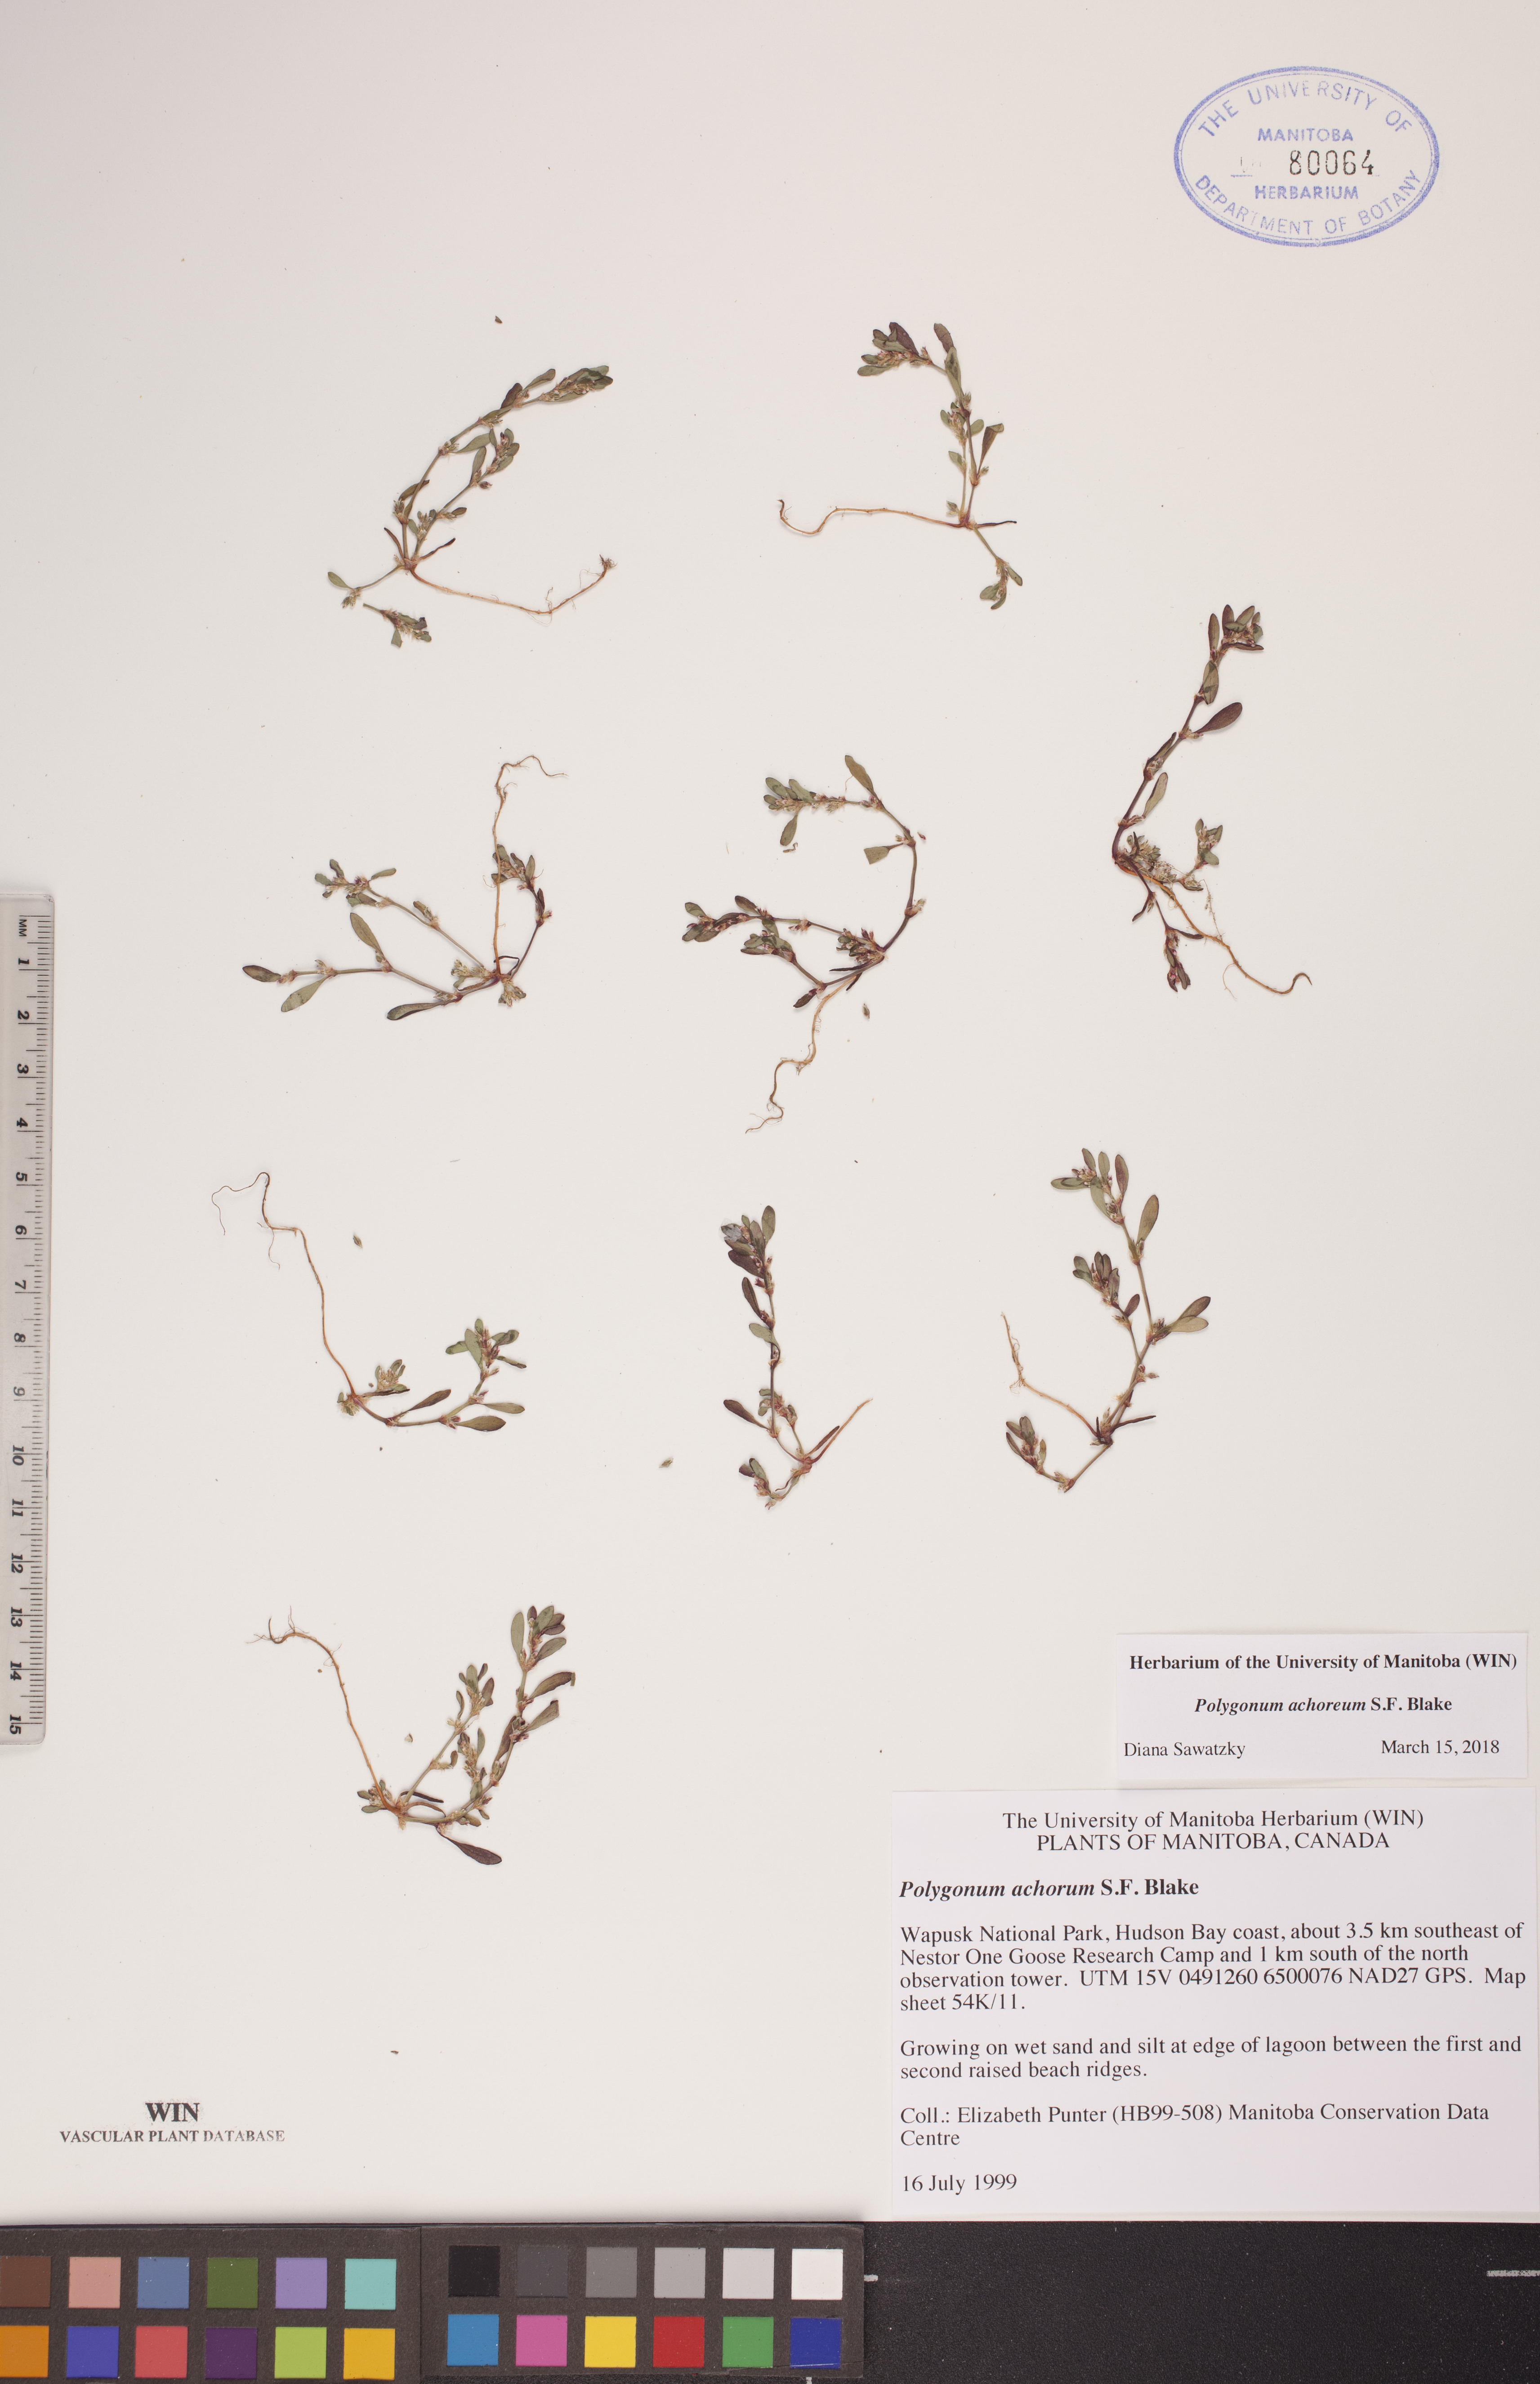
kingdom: Plantae
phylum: Tracheophyta
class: Magnoliopsida
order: Caryophyllales
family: Polygonaceae
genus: Polygonum
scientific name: Polygonum achoreum
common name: Striate knotweed
